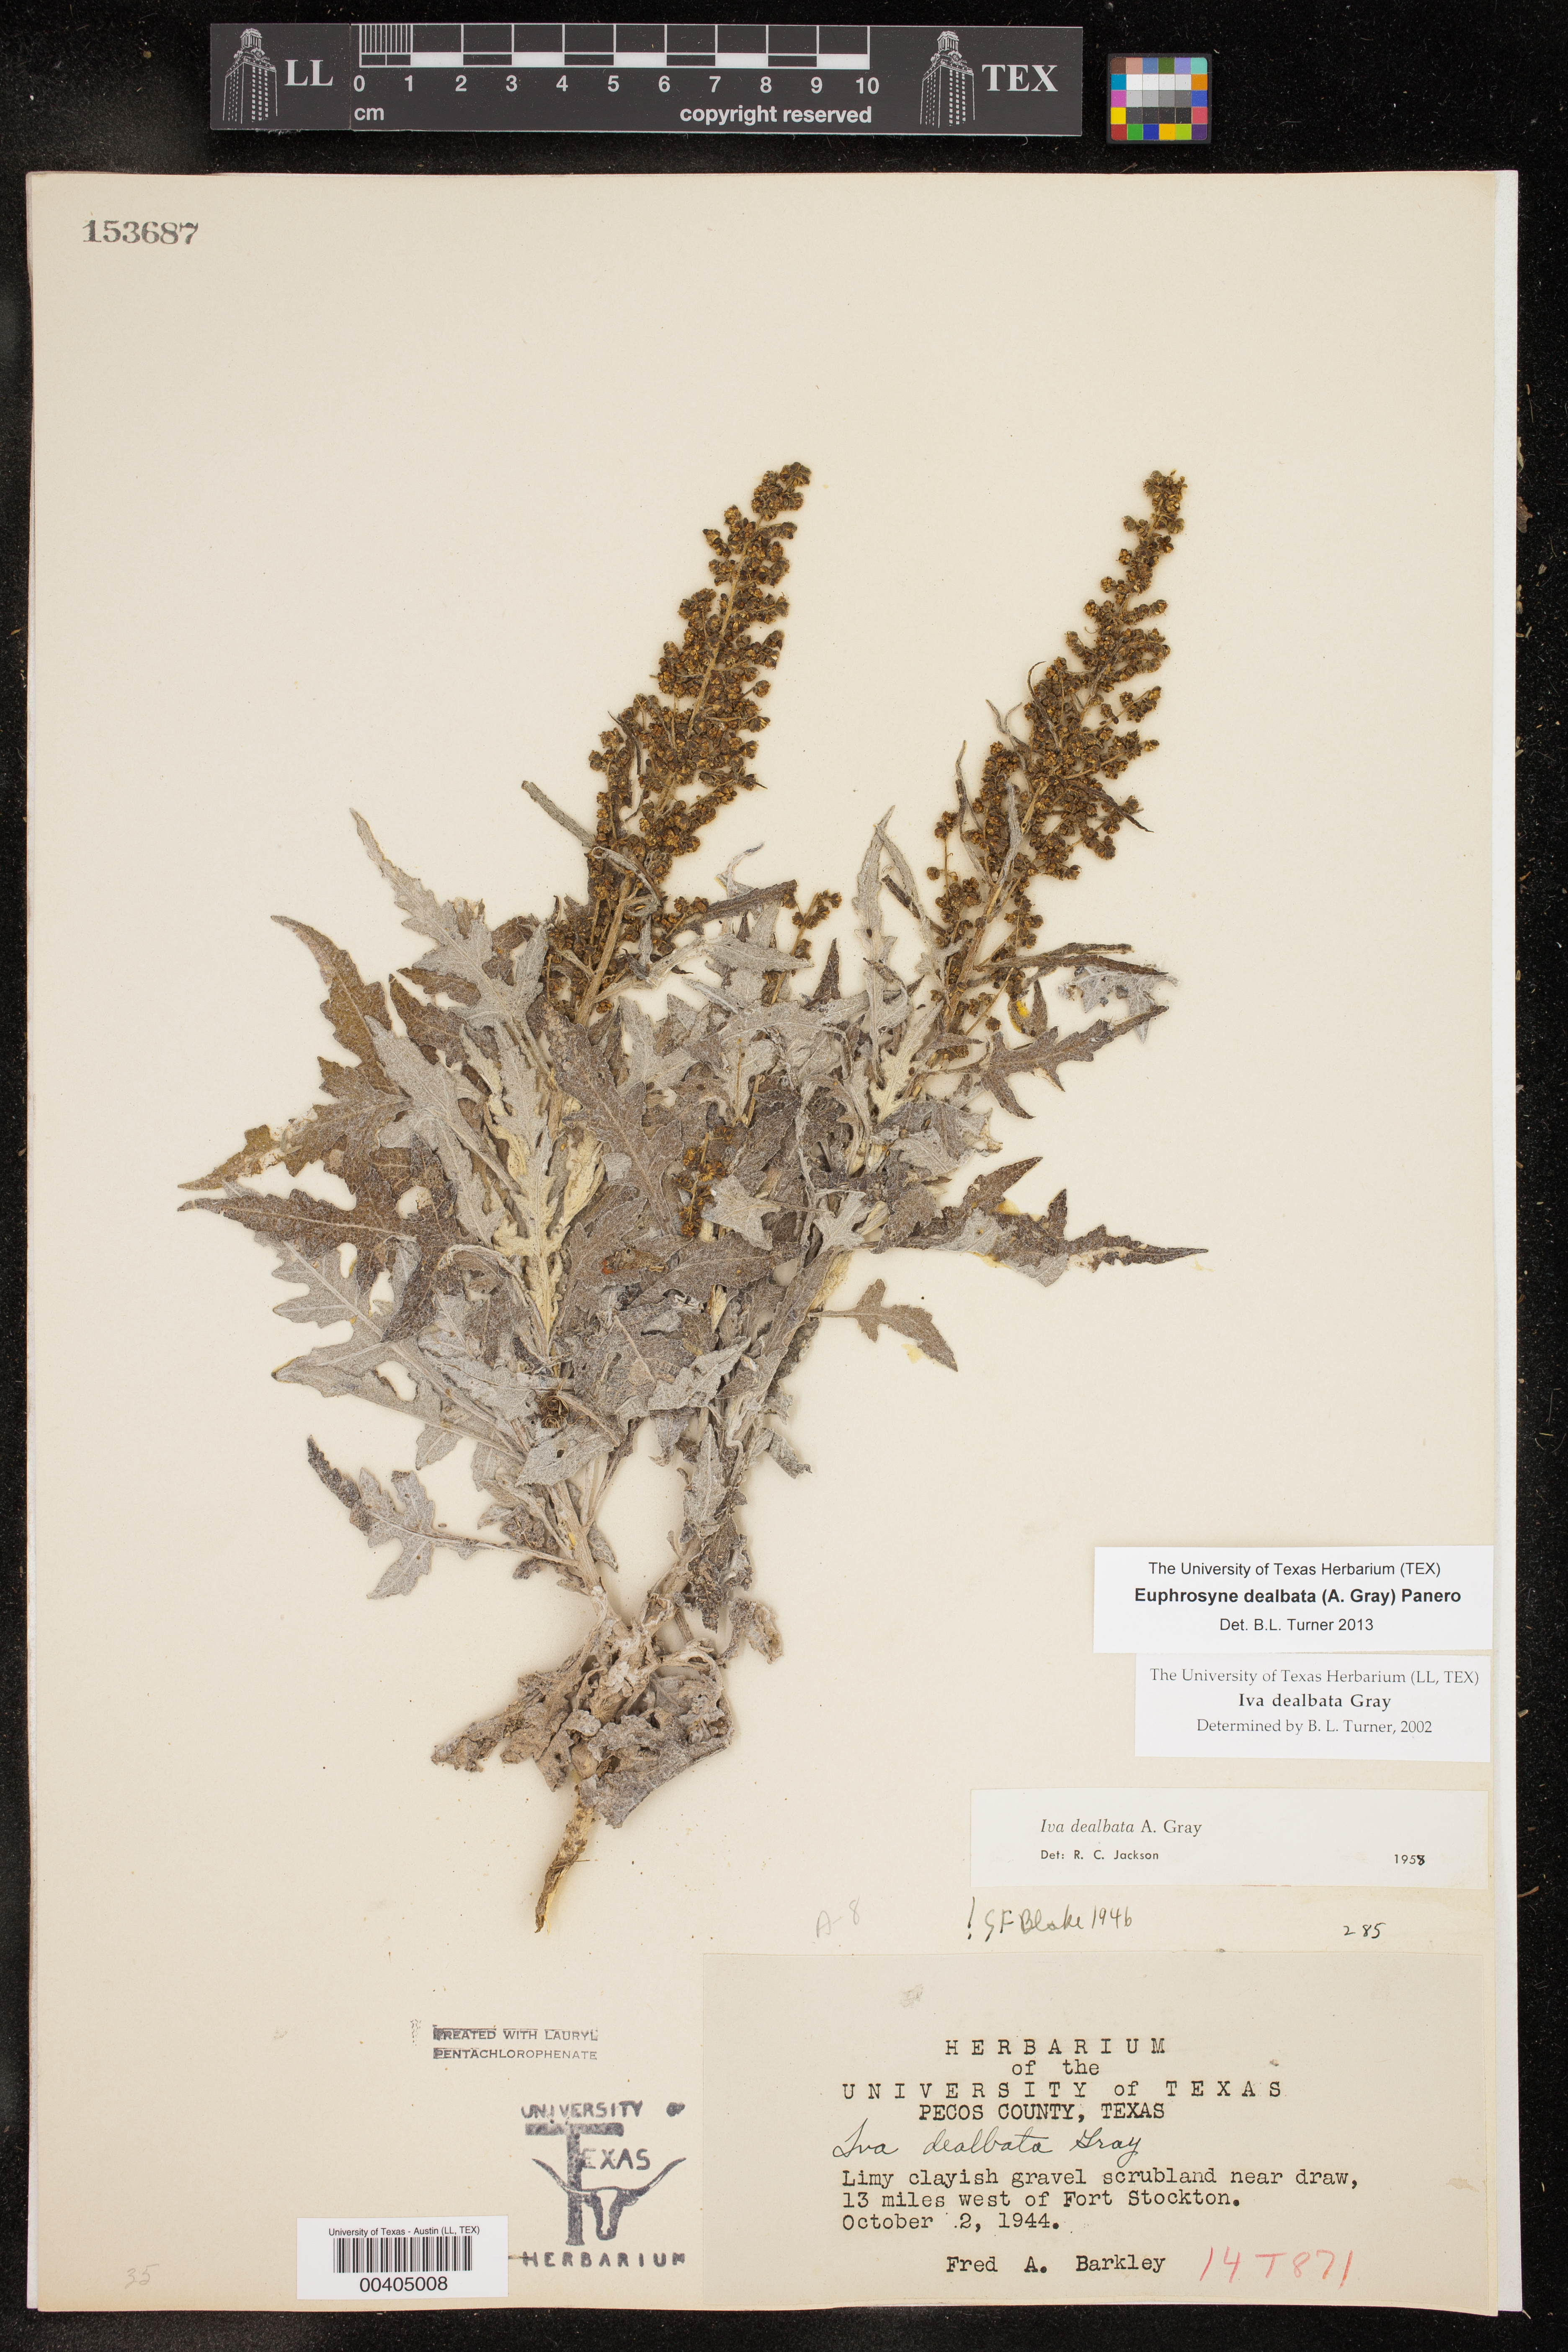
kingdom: Plantae
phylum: Tracheophyta
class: Magnoliopsida
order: Asterales
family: Asteraceae
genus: Euphrosyne
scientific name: Euphrosyne dealbata
